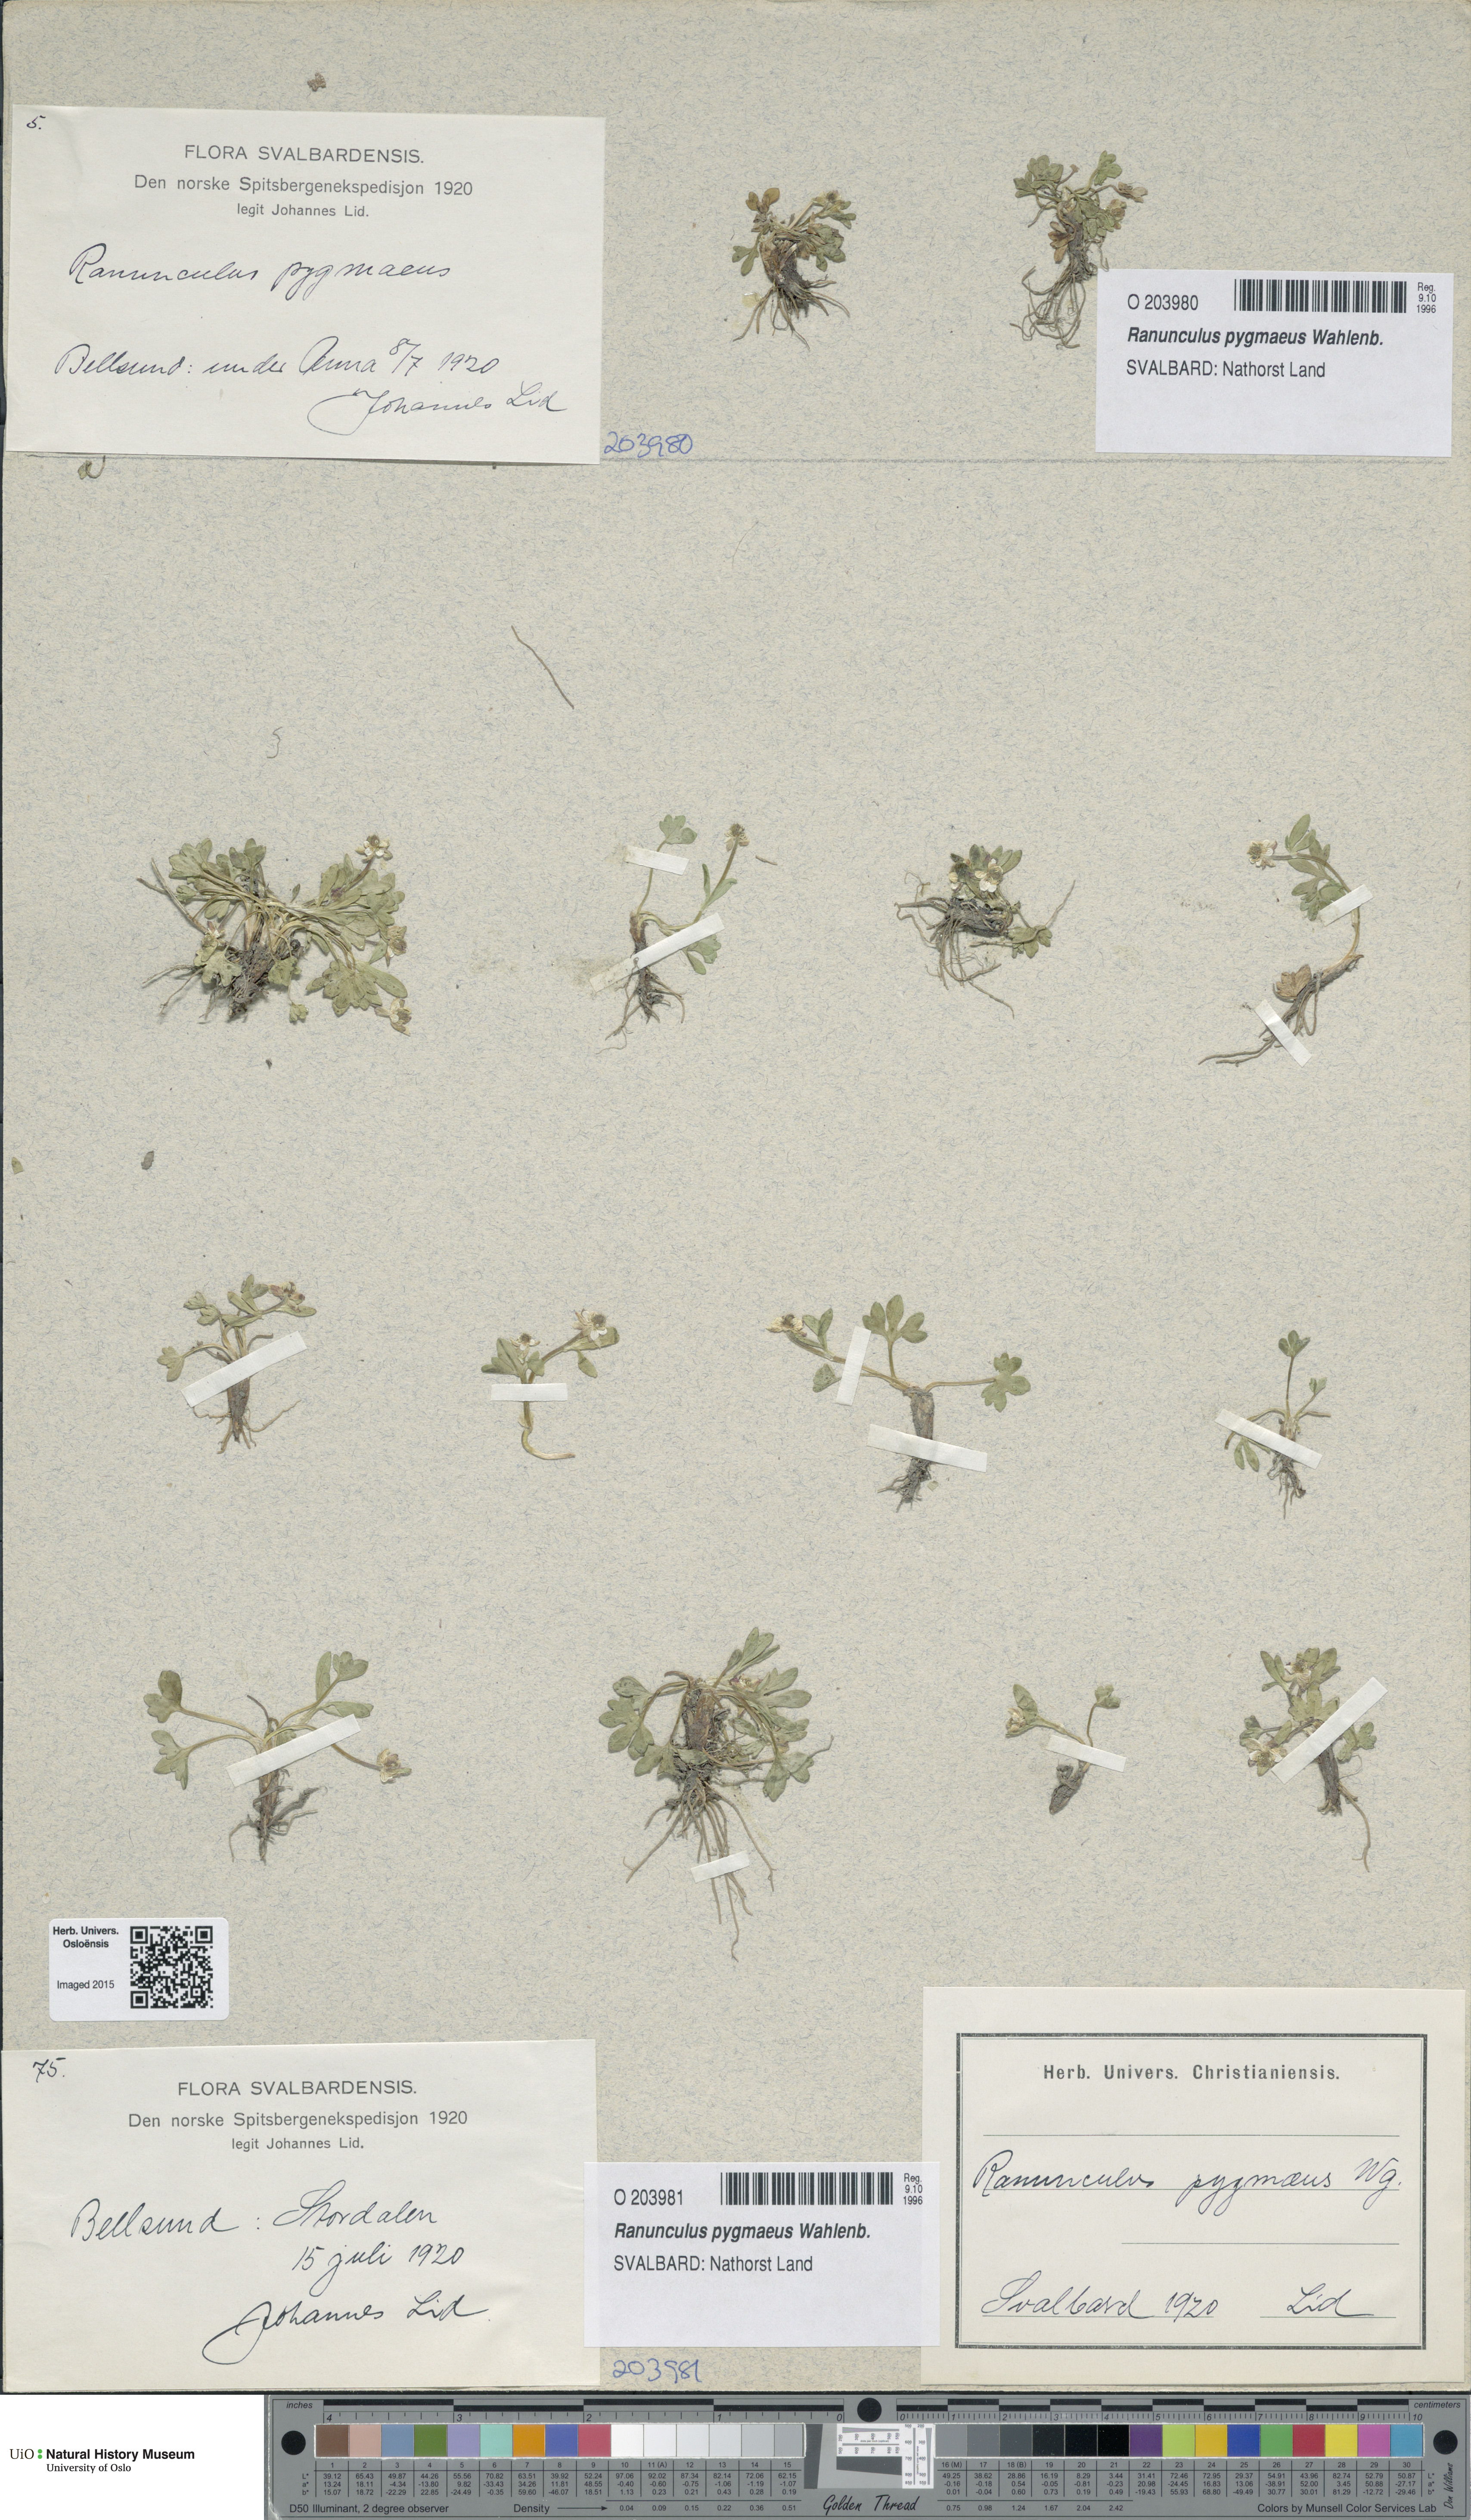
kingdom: Plantae
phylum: Tracheophyta
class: Magnoliopsida
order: Ranunculales
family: Ranunculaceae
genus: Ranunculus
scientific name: Ranunculus pygmaeus
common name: Dwarf buttercup
